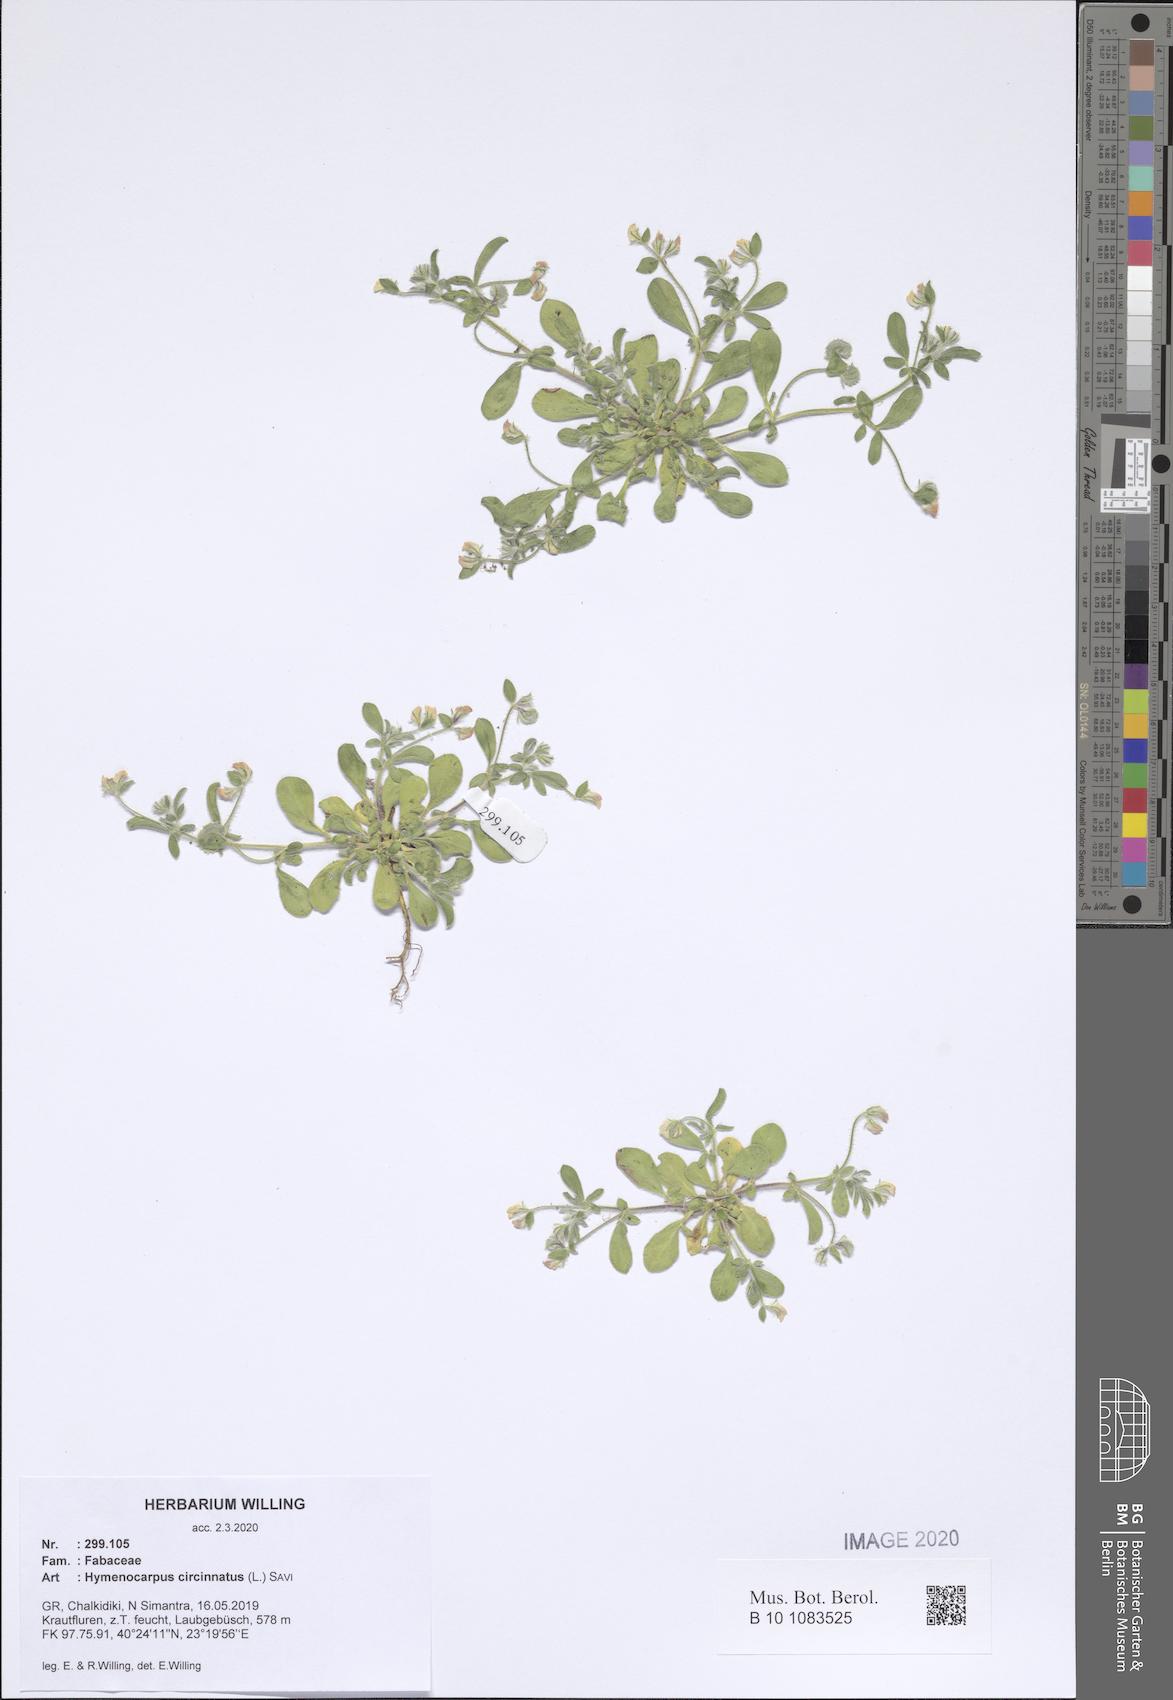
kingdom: Plantae
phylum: Tracheophyta
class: Magnoliopsida
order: Fabales
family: Fabaceae
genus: Anthyllis
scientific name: Anthyllis circinnata
